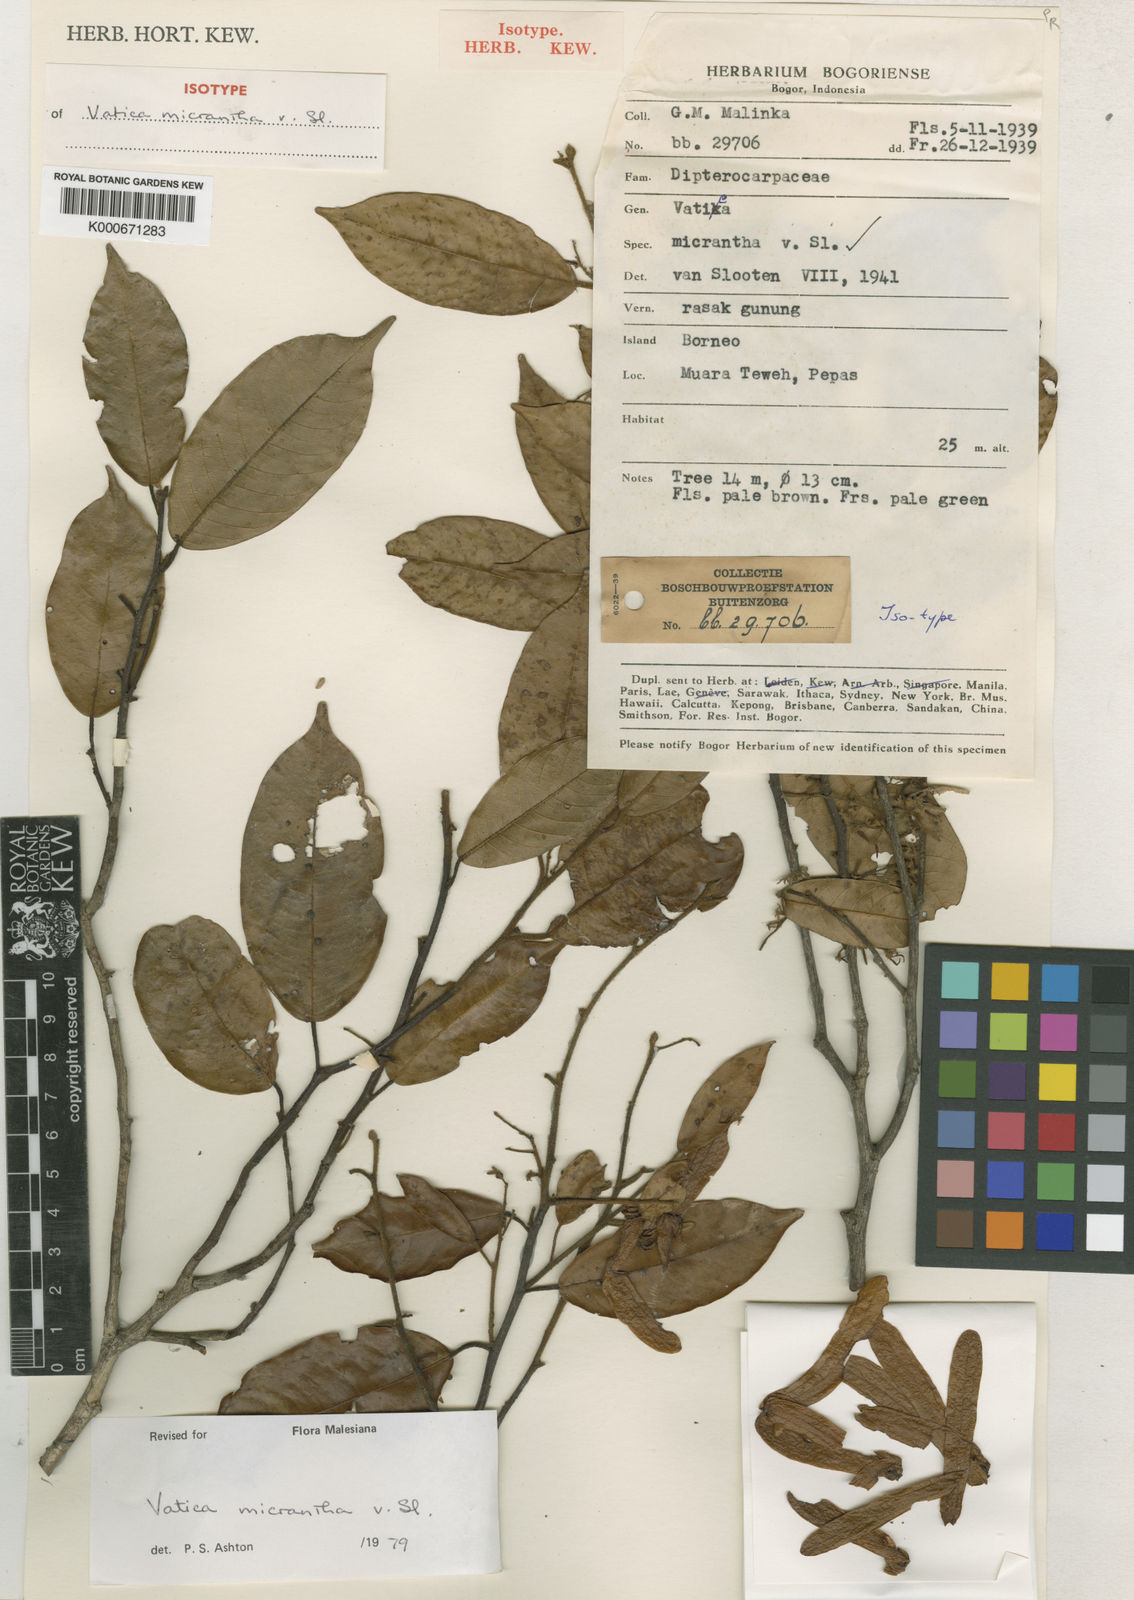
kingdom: Plantae
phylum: Tracheophyta
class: Magnoliopsida
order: Malvales
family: Dipterocarpaceae
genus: Vatica
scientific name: Vatica micrantha
